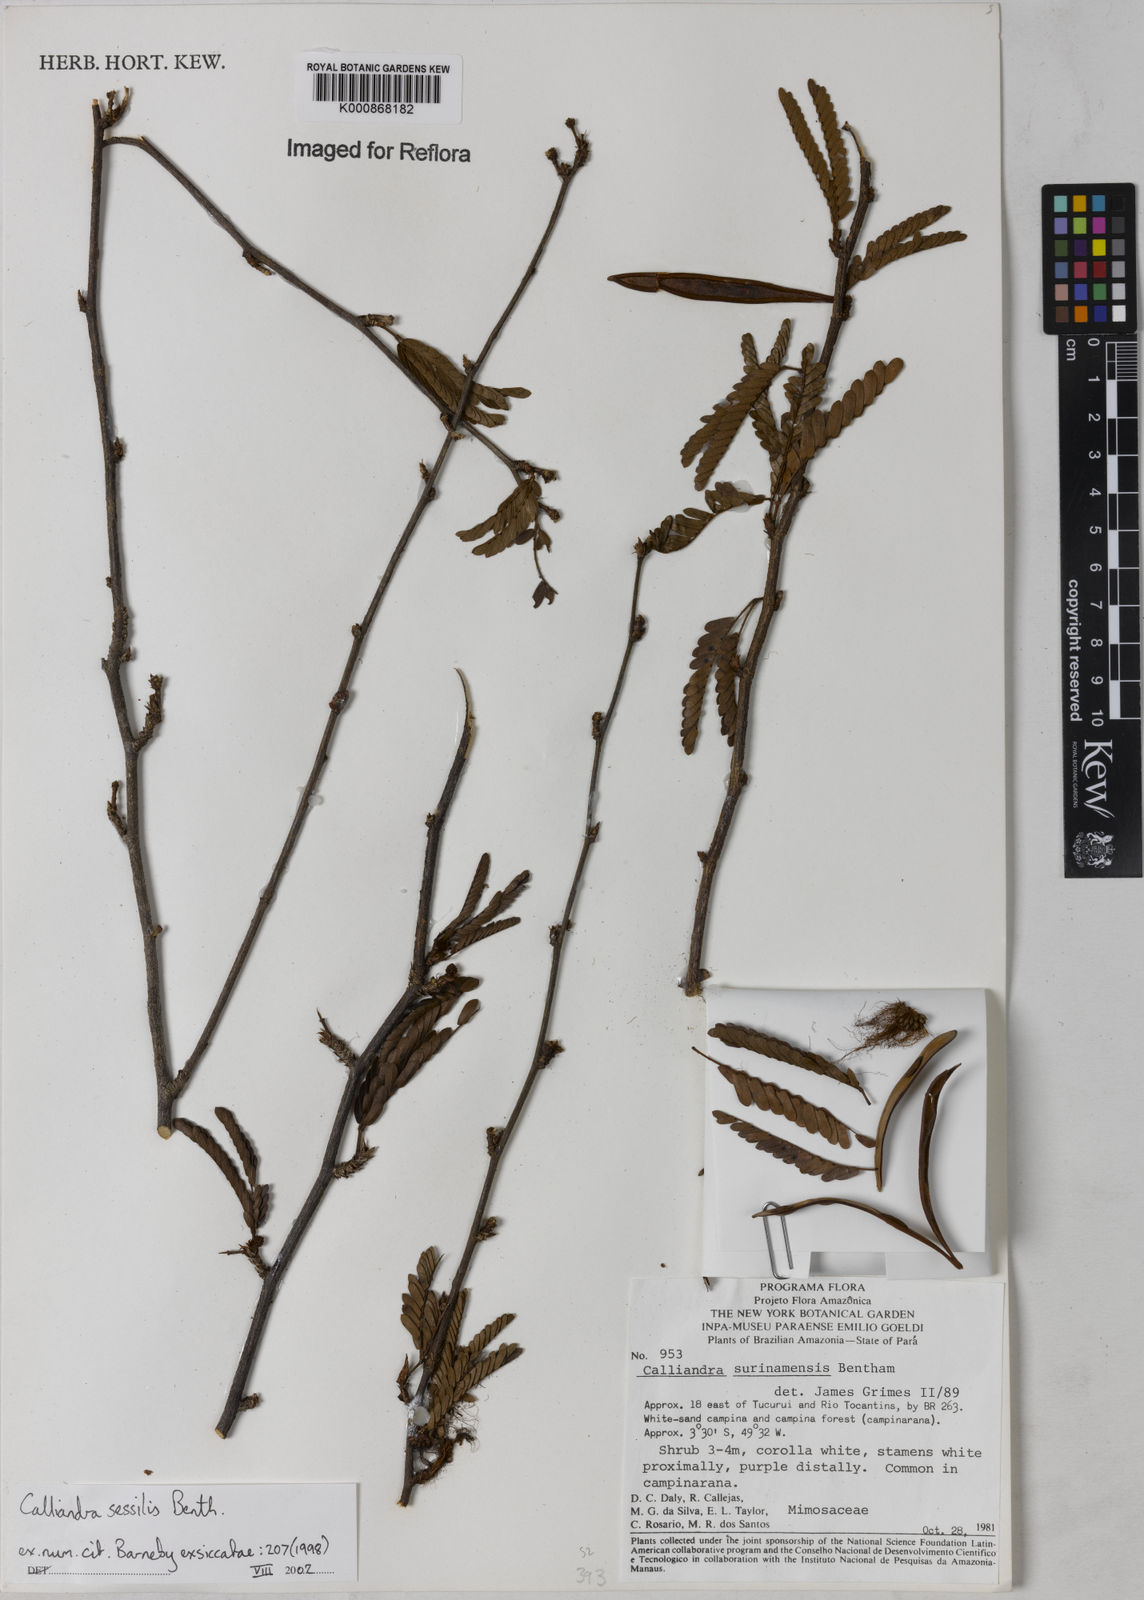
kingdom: Plantae
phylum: Tracheophyta
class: Magnoliopsida
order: Fabales
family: Fabaceae
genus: Calliandra
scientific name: Calliandra sessilis
